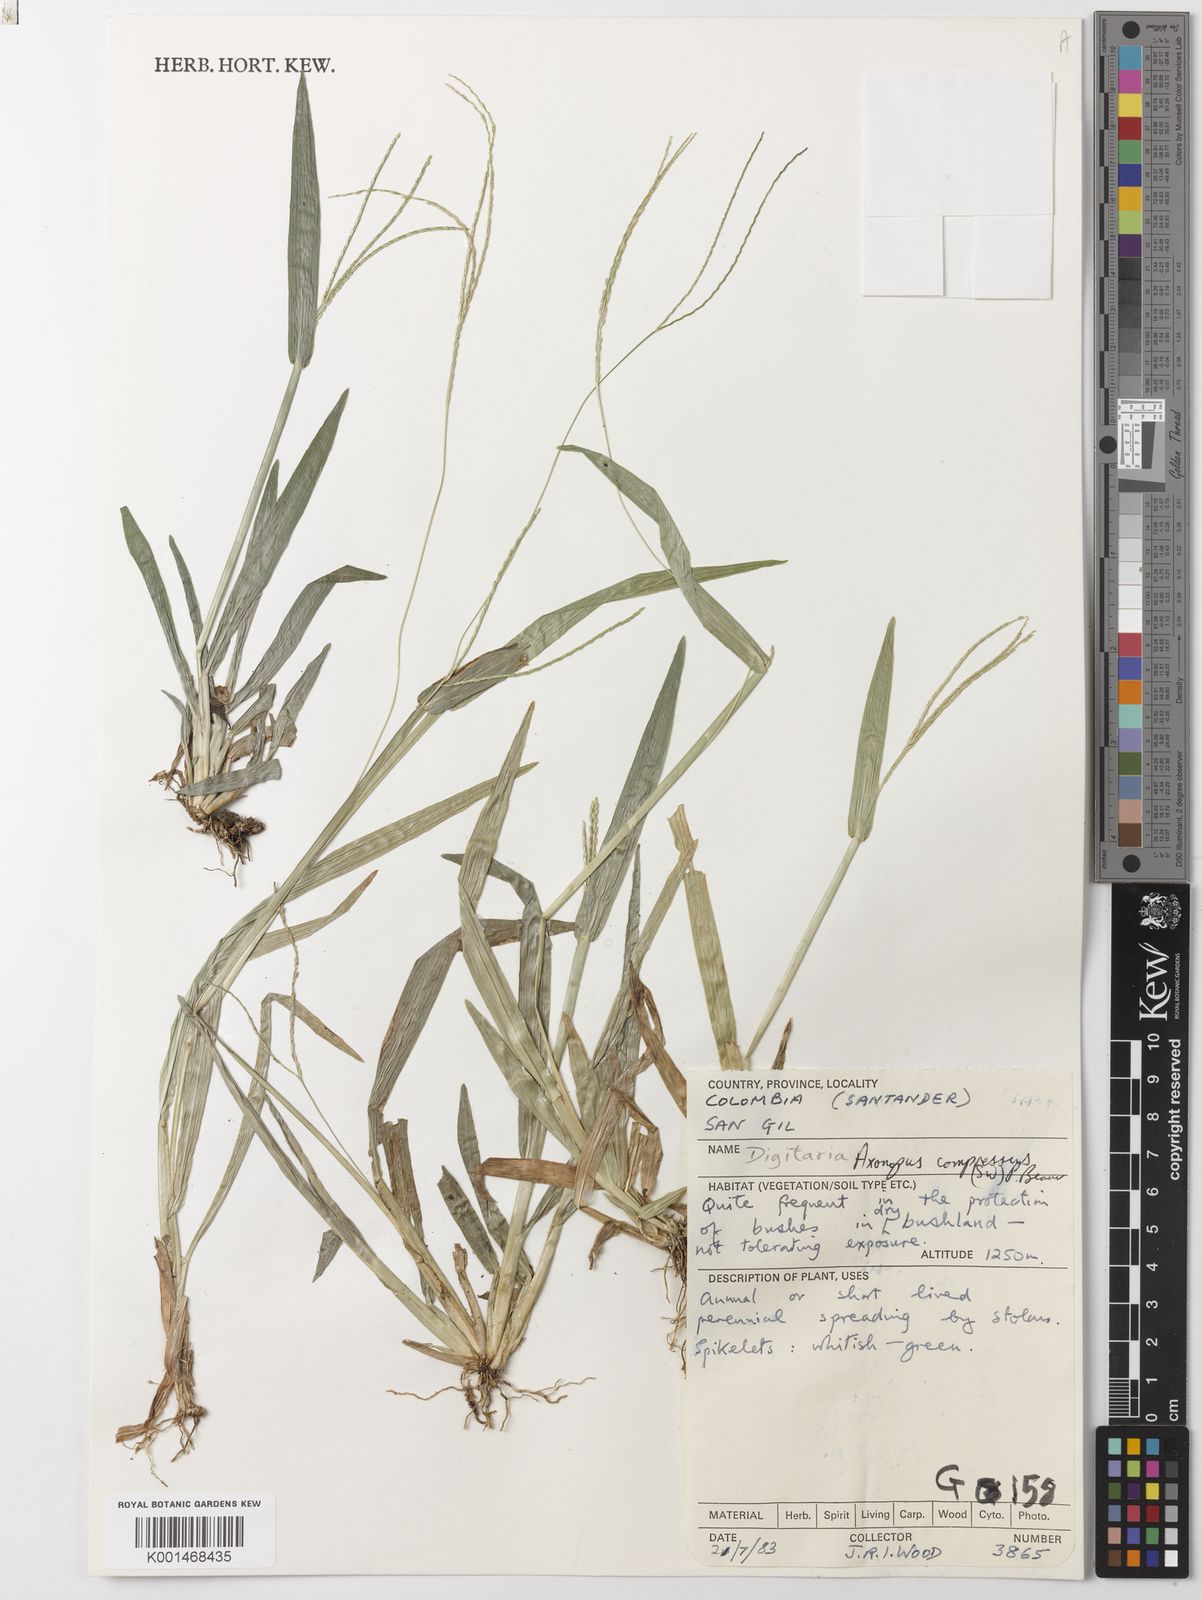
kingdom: Plantae
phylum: Tracheophyta
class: Liliopsida
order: Poales
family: Poaceae
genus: Axonopus
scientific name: Axonopus compressus
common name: American carpet grass
